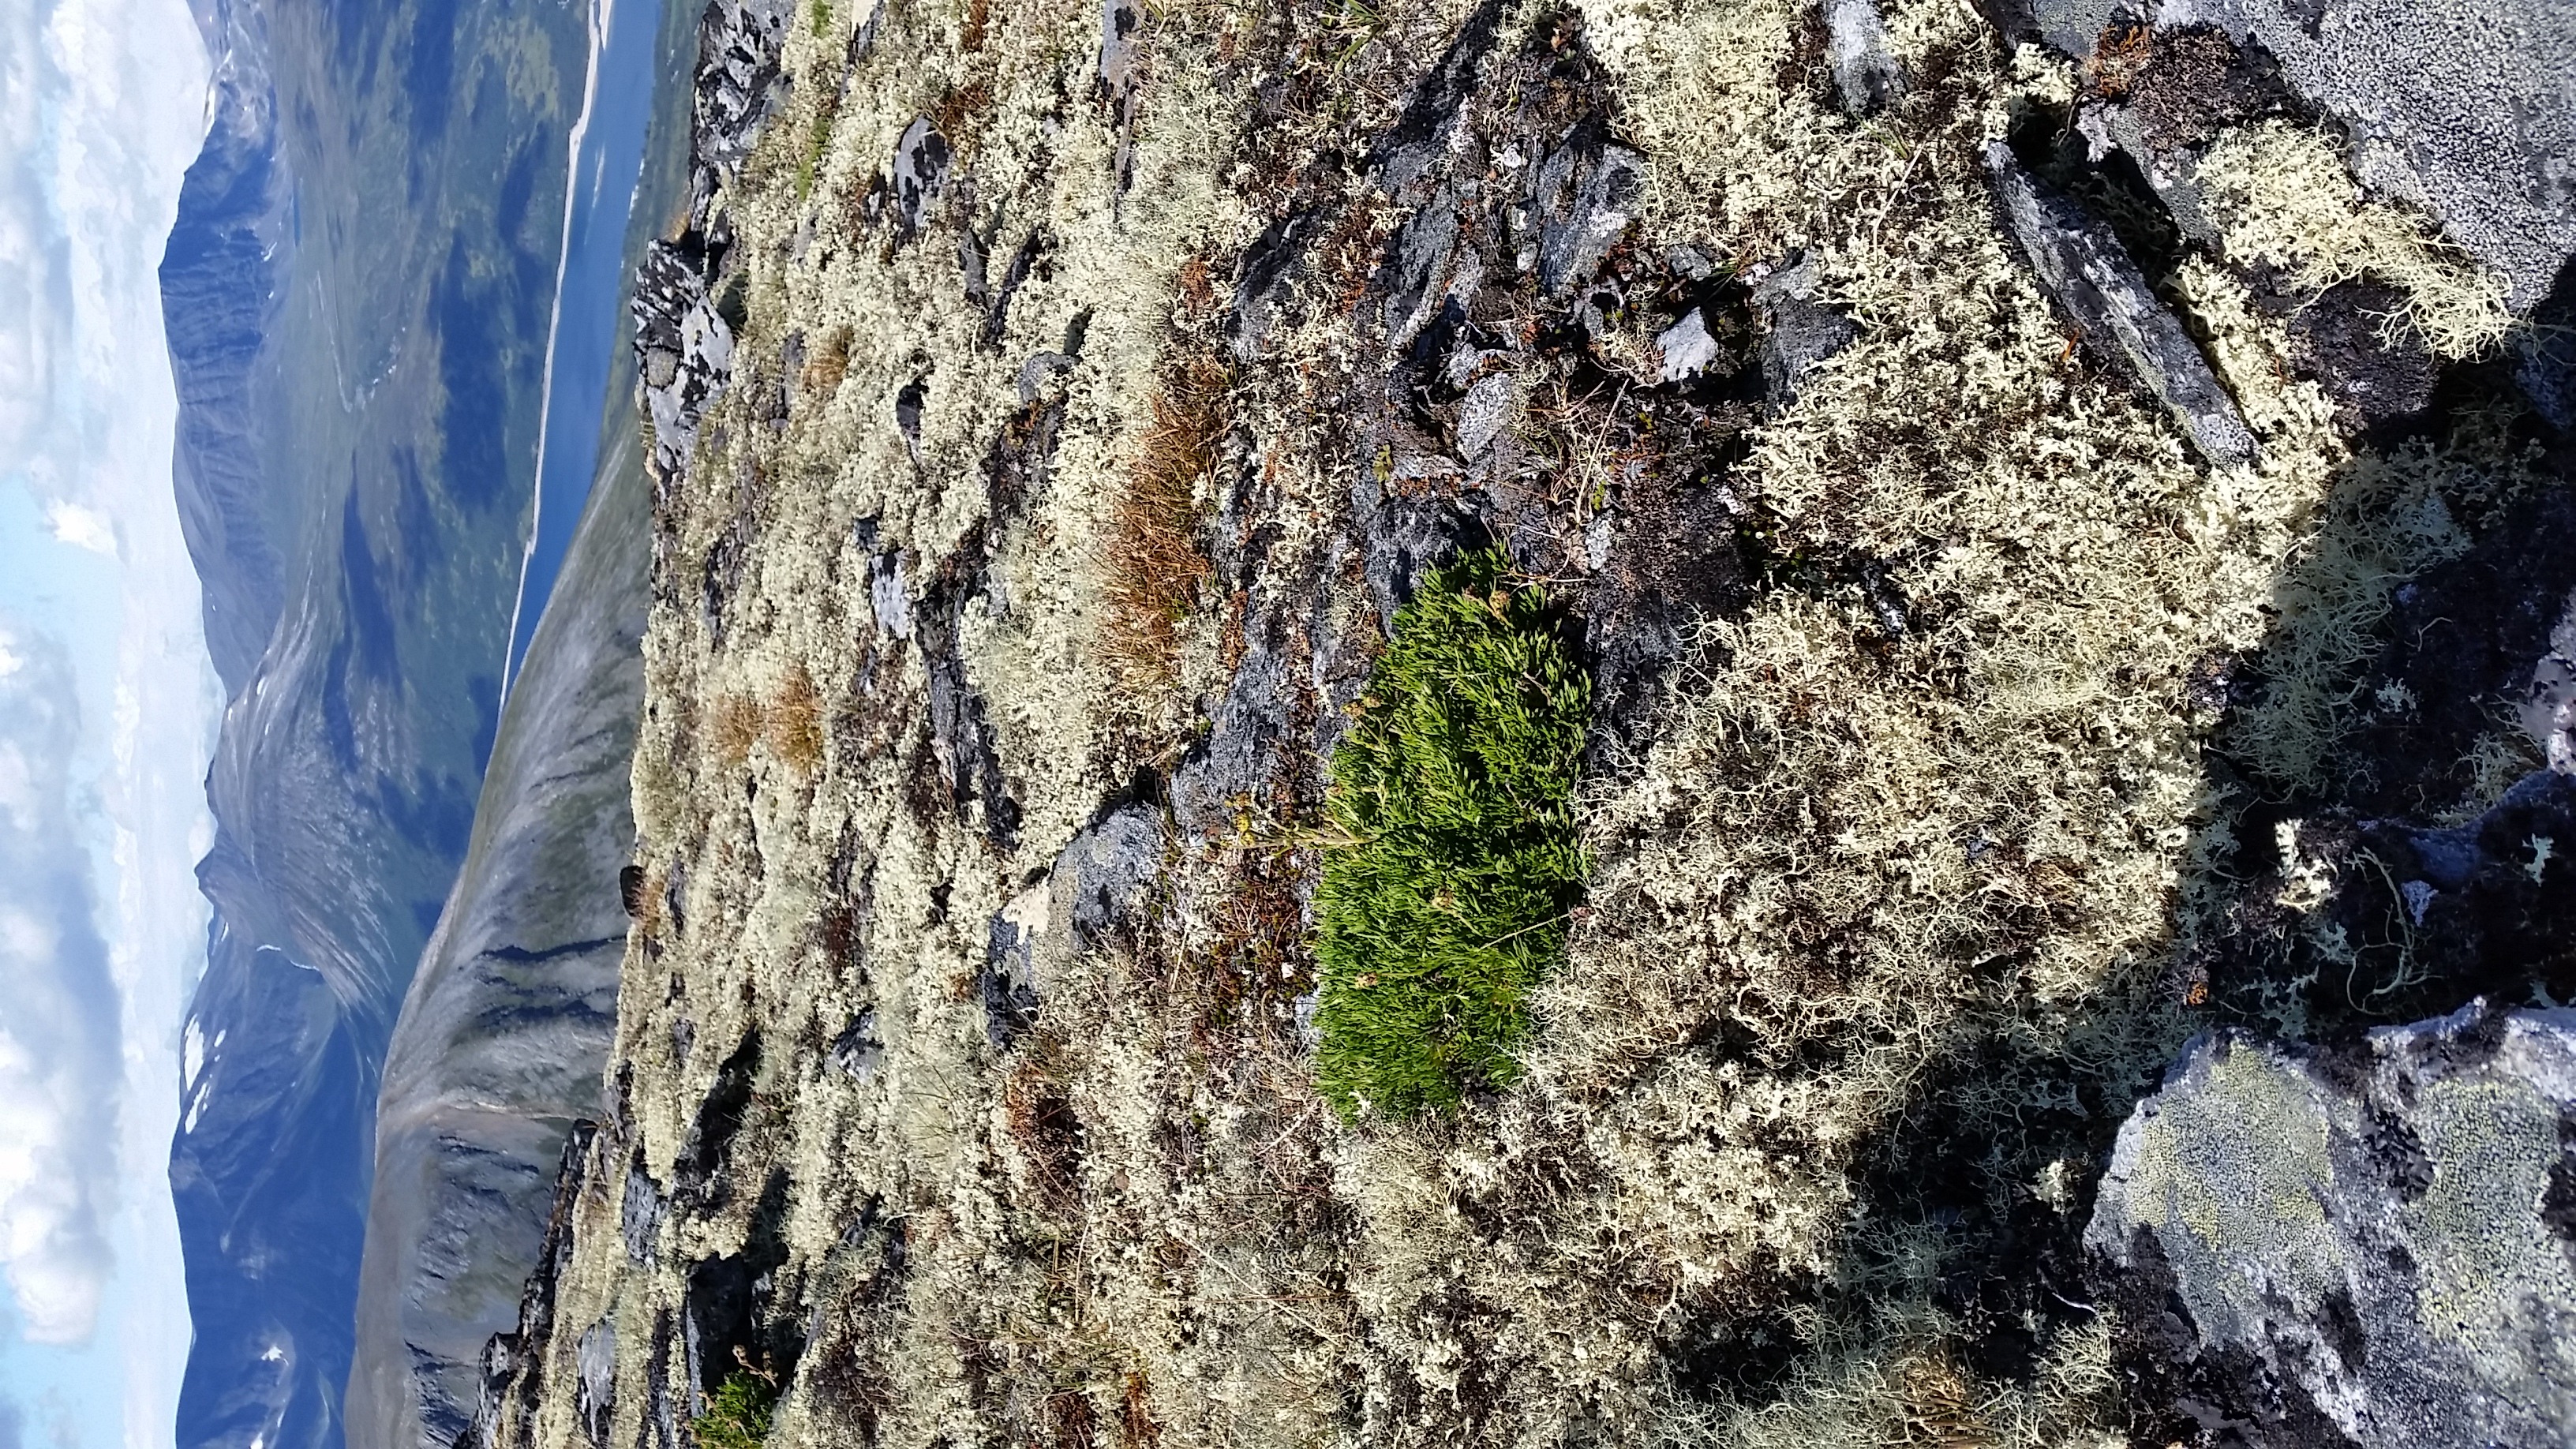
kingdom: Plantae
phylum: Tracheophyta
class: Magnoliopsida
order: Asterales
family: Asteraceae
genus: Artemisia
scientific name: Artemisia norvegica
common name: Norwegian mugwort
